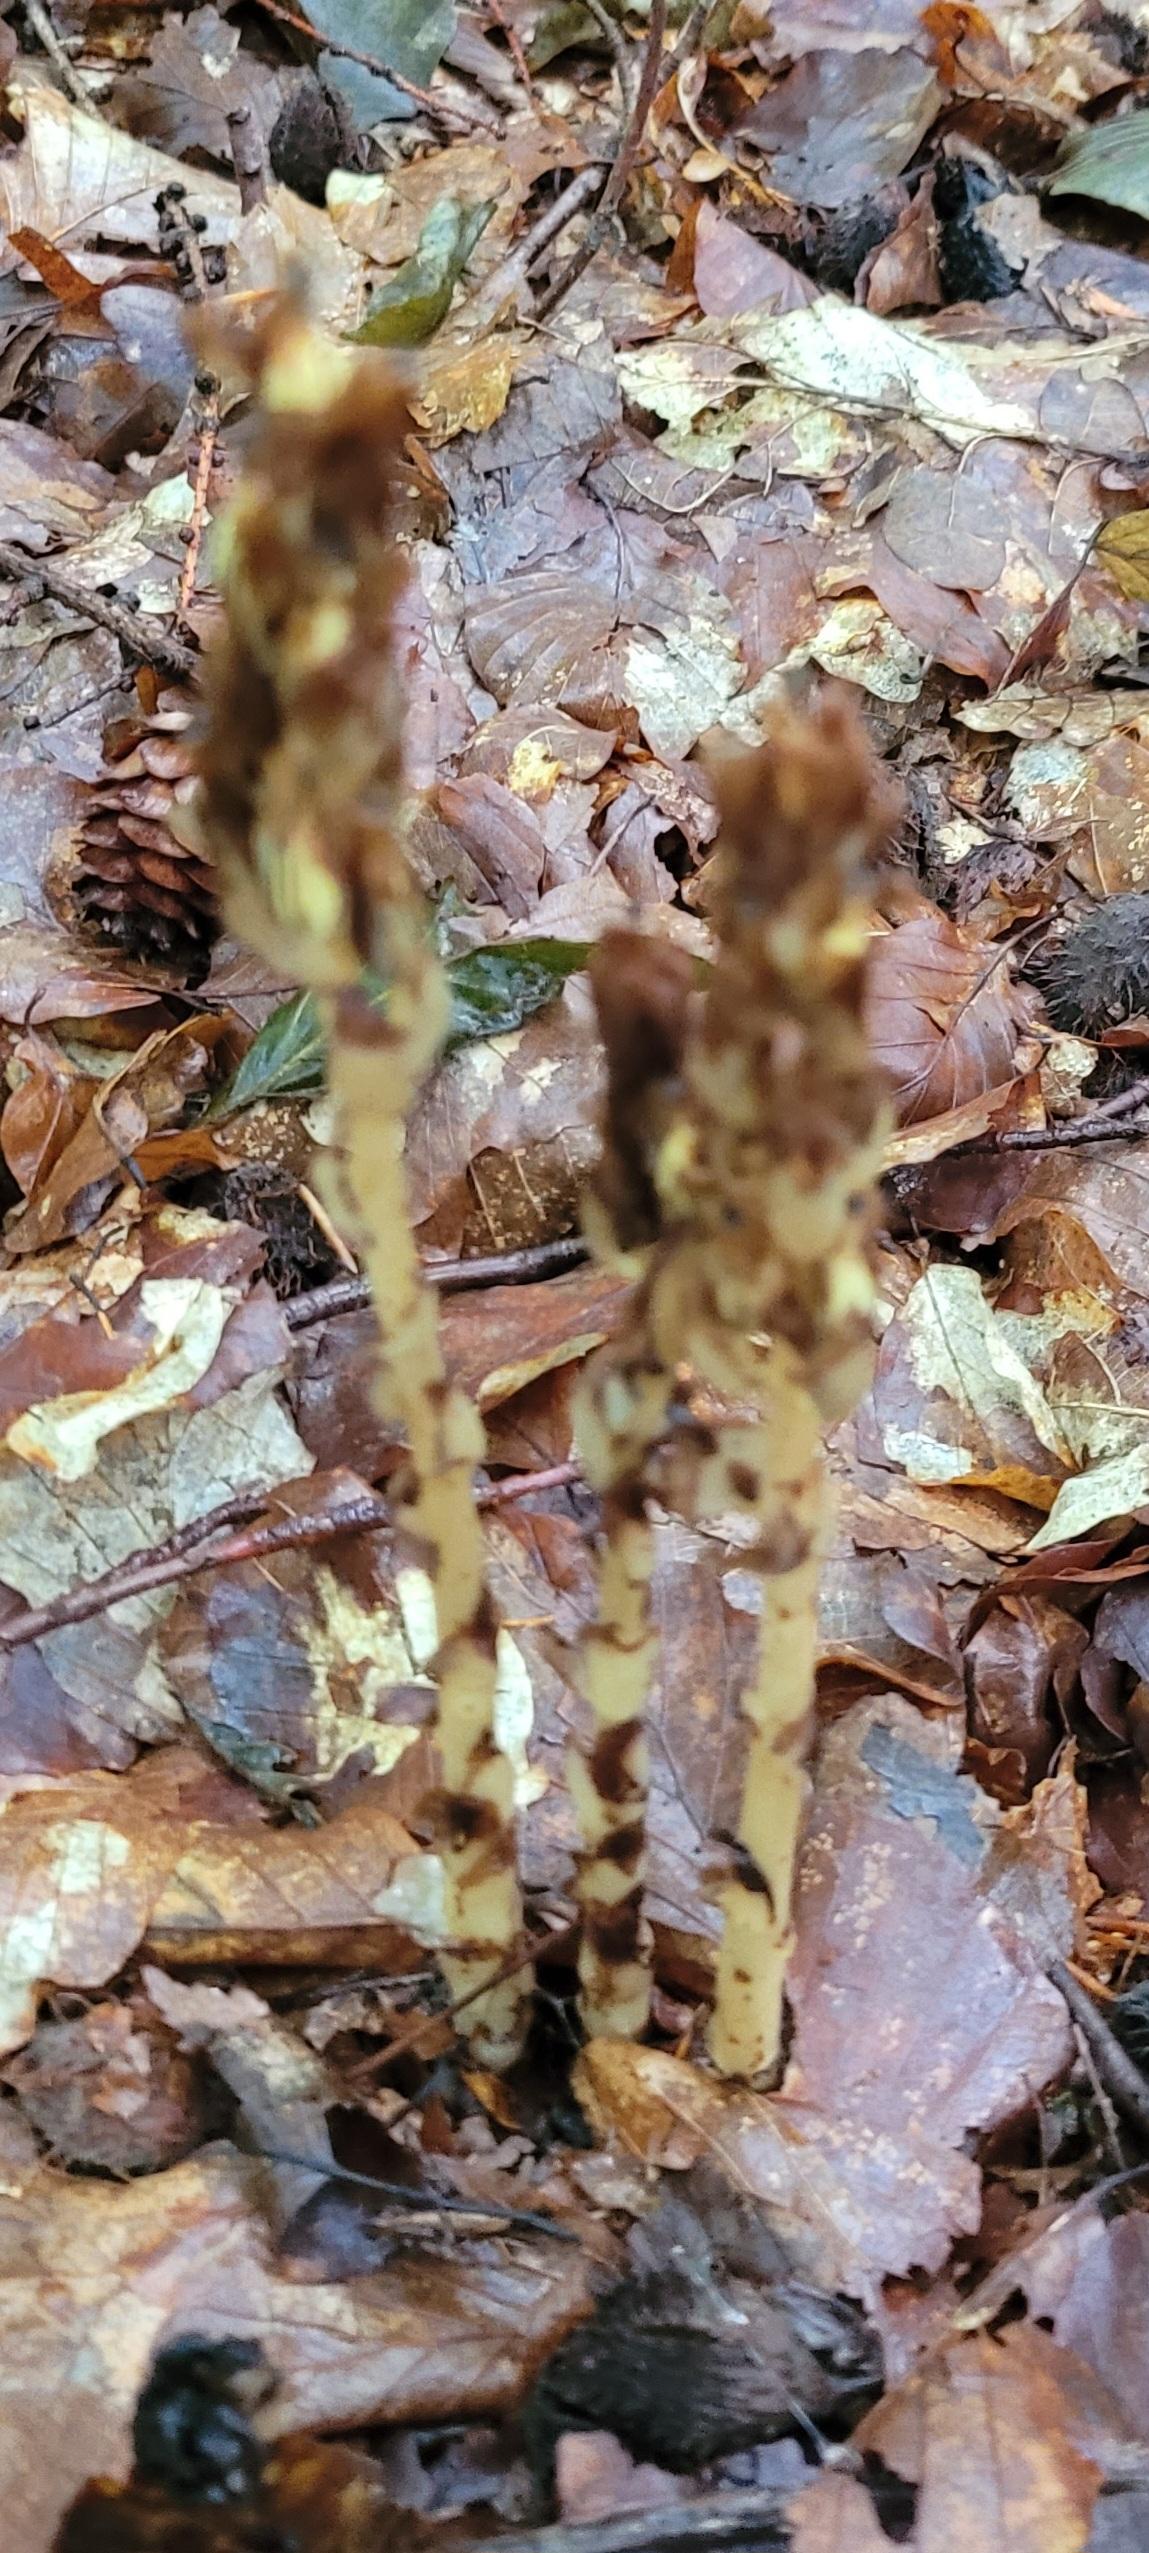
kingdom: Plantae
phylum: Tracheophyta
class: Magnoliopsida
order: Ericales
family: Ericaceae
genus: Hypopitys
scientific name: Hypopitys monotropa
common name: Snylterod
